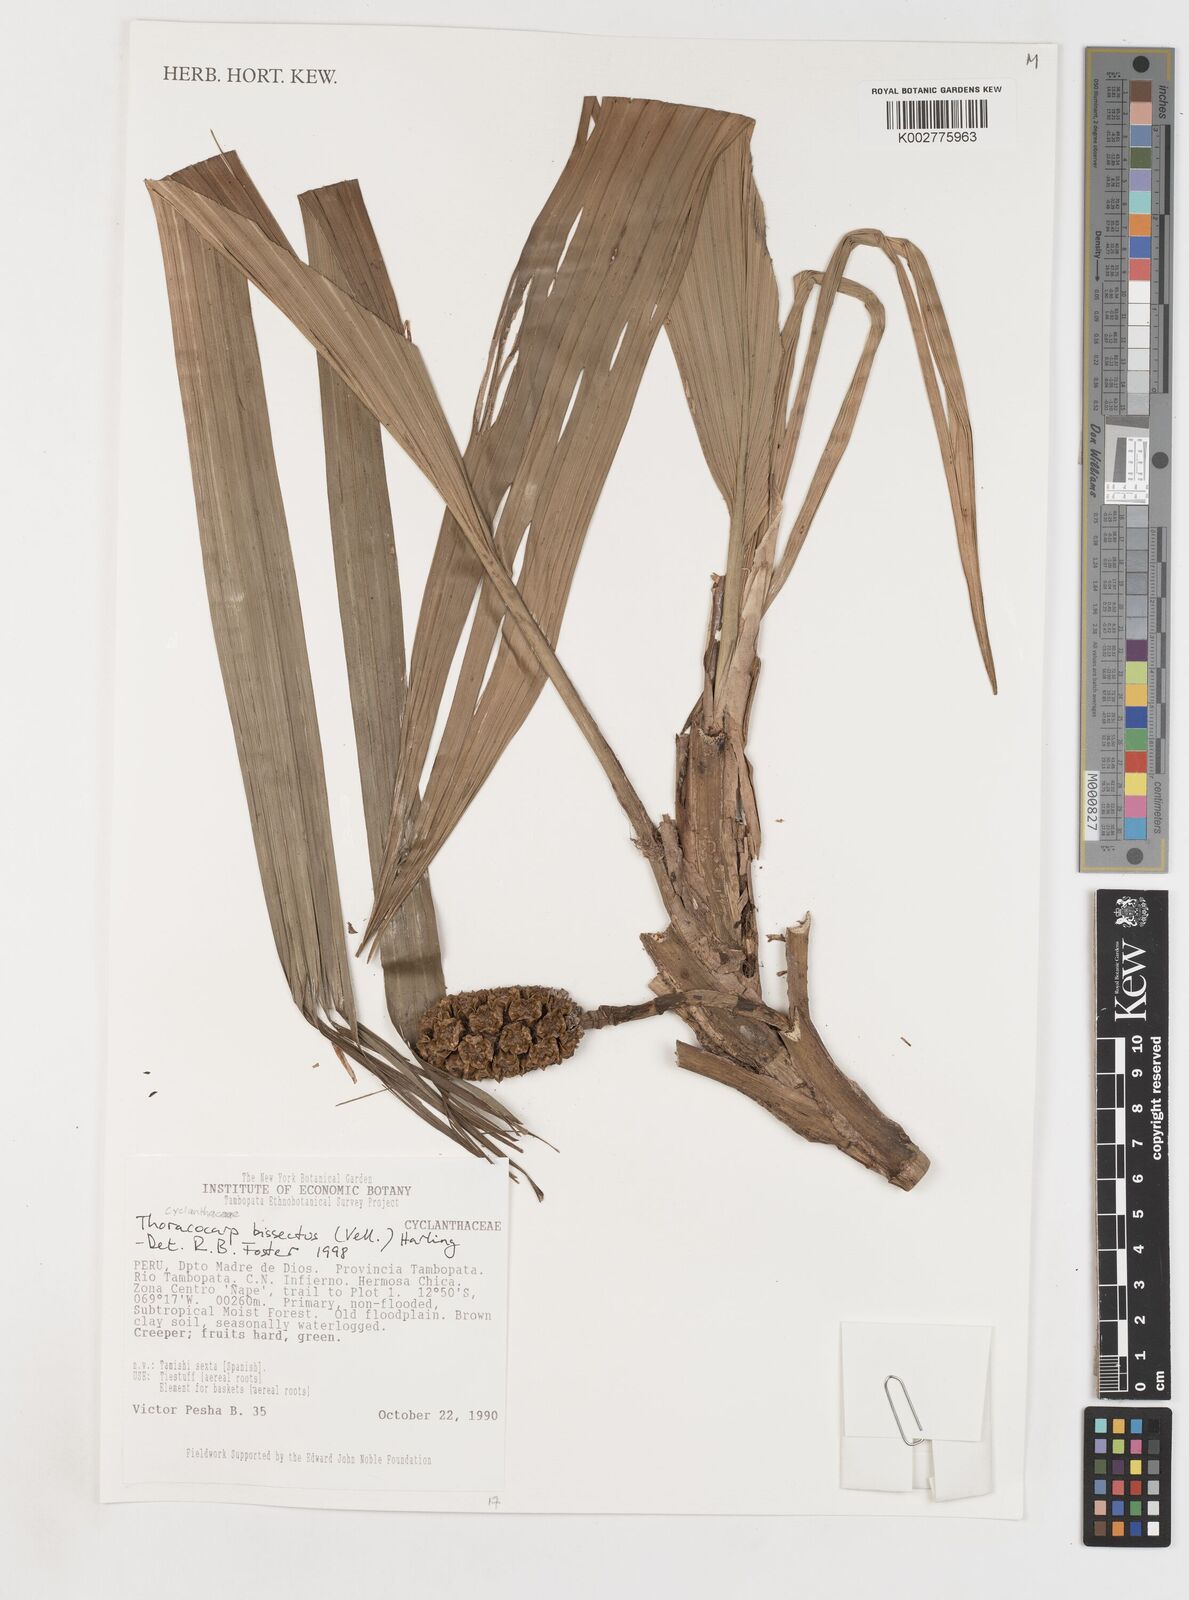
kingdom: Plantae
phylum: Tracheophyta
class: Liliopsida
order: Pandanales
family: Cyclanthaceae
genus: Thoracocarpus
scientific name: Thoracocarpus bissectus
